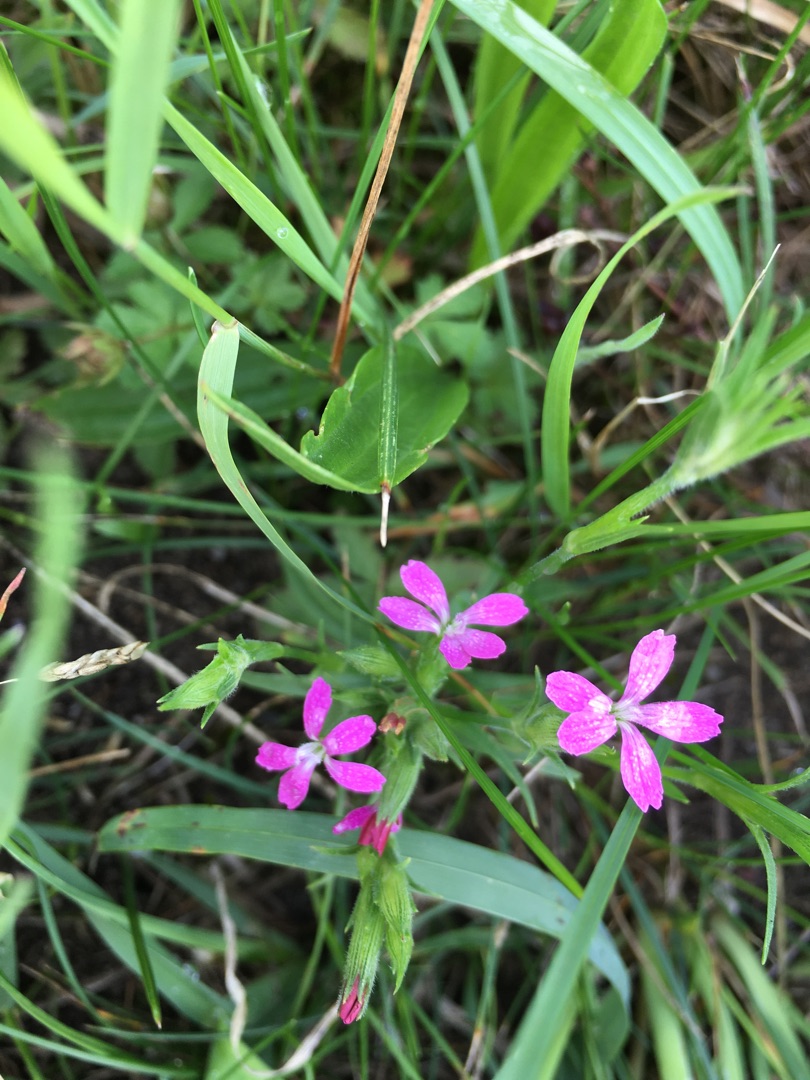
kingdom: Plantae
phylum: Tracheophyta
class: Magnoliopsida
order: Caryophyllales
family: Caryophyllaceae
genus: Dianthus
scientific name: Dianthus armeria
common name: Kost-nellike
